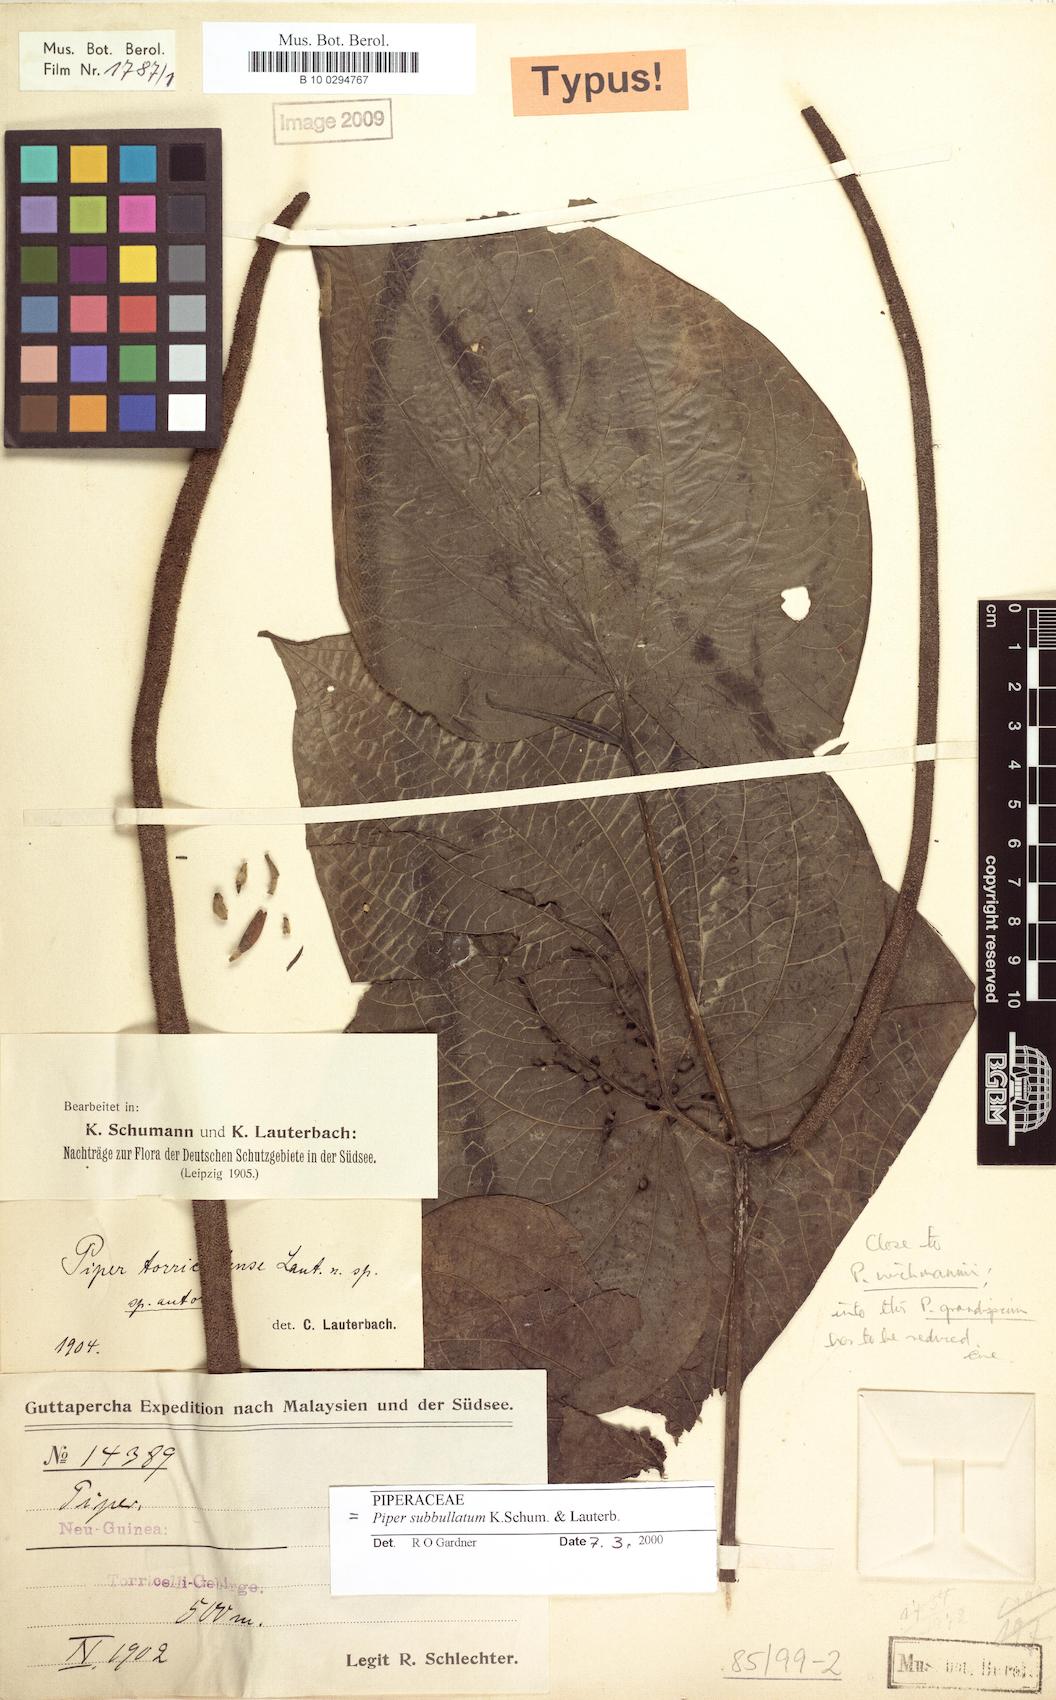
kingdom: Plantae
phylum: Tracheophyta
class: Magnoliopsida
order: Piperales
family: Piperaceae
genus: Piper
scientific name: Piper subbullatum
